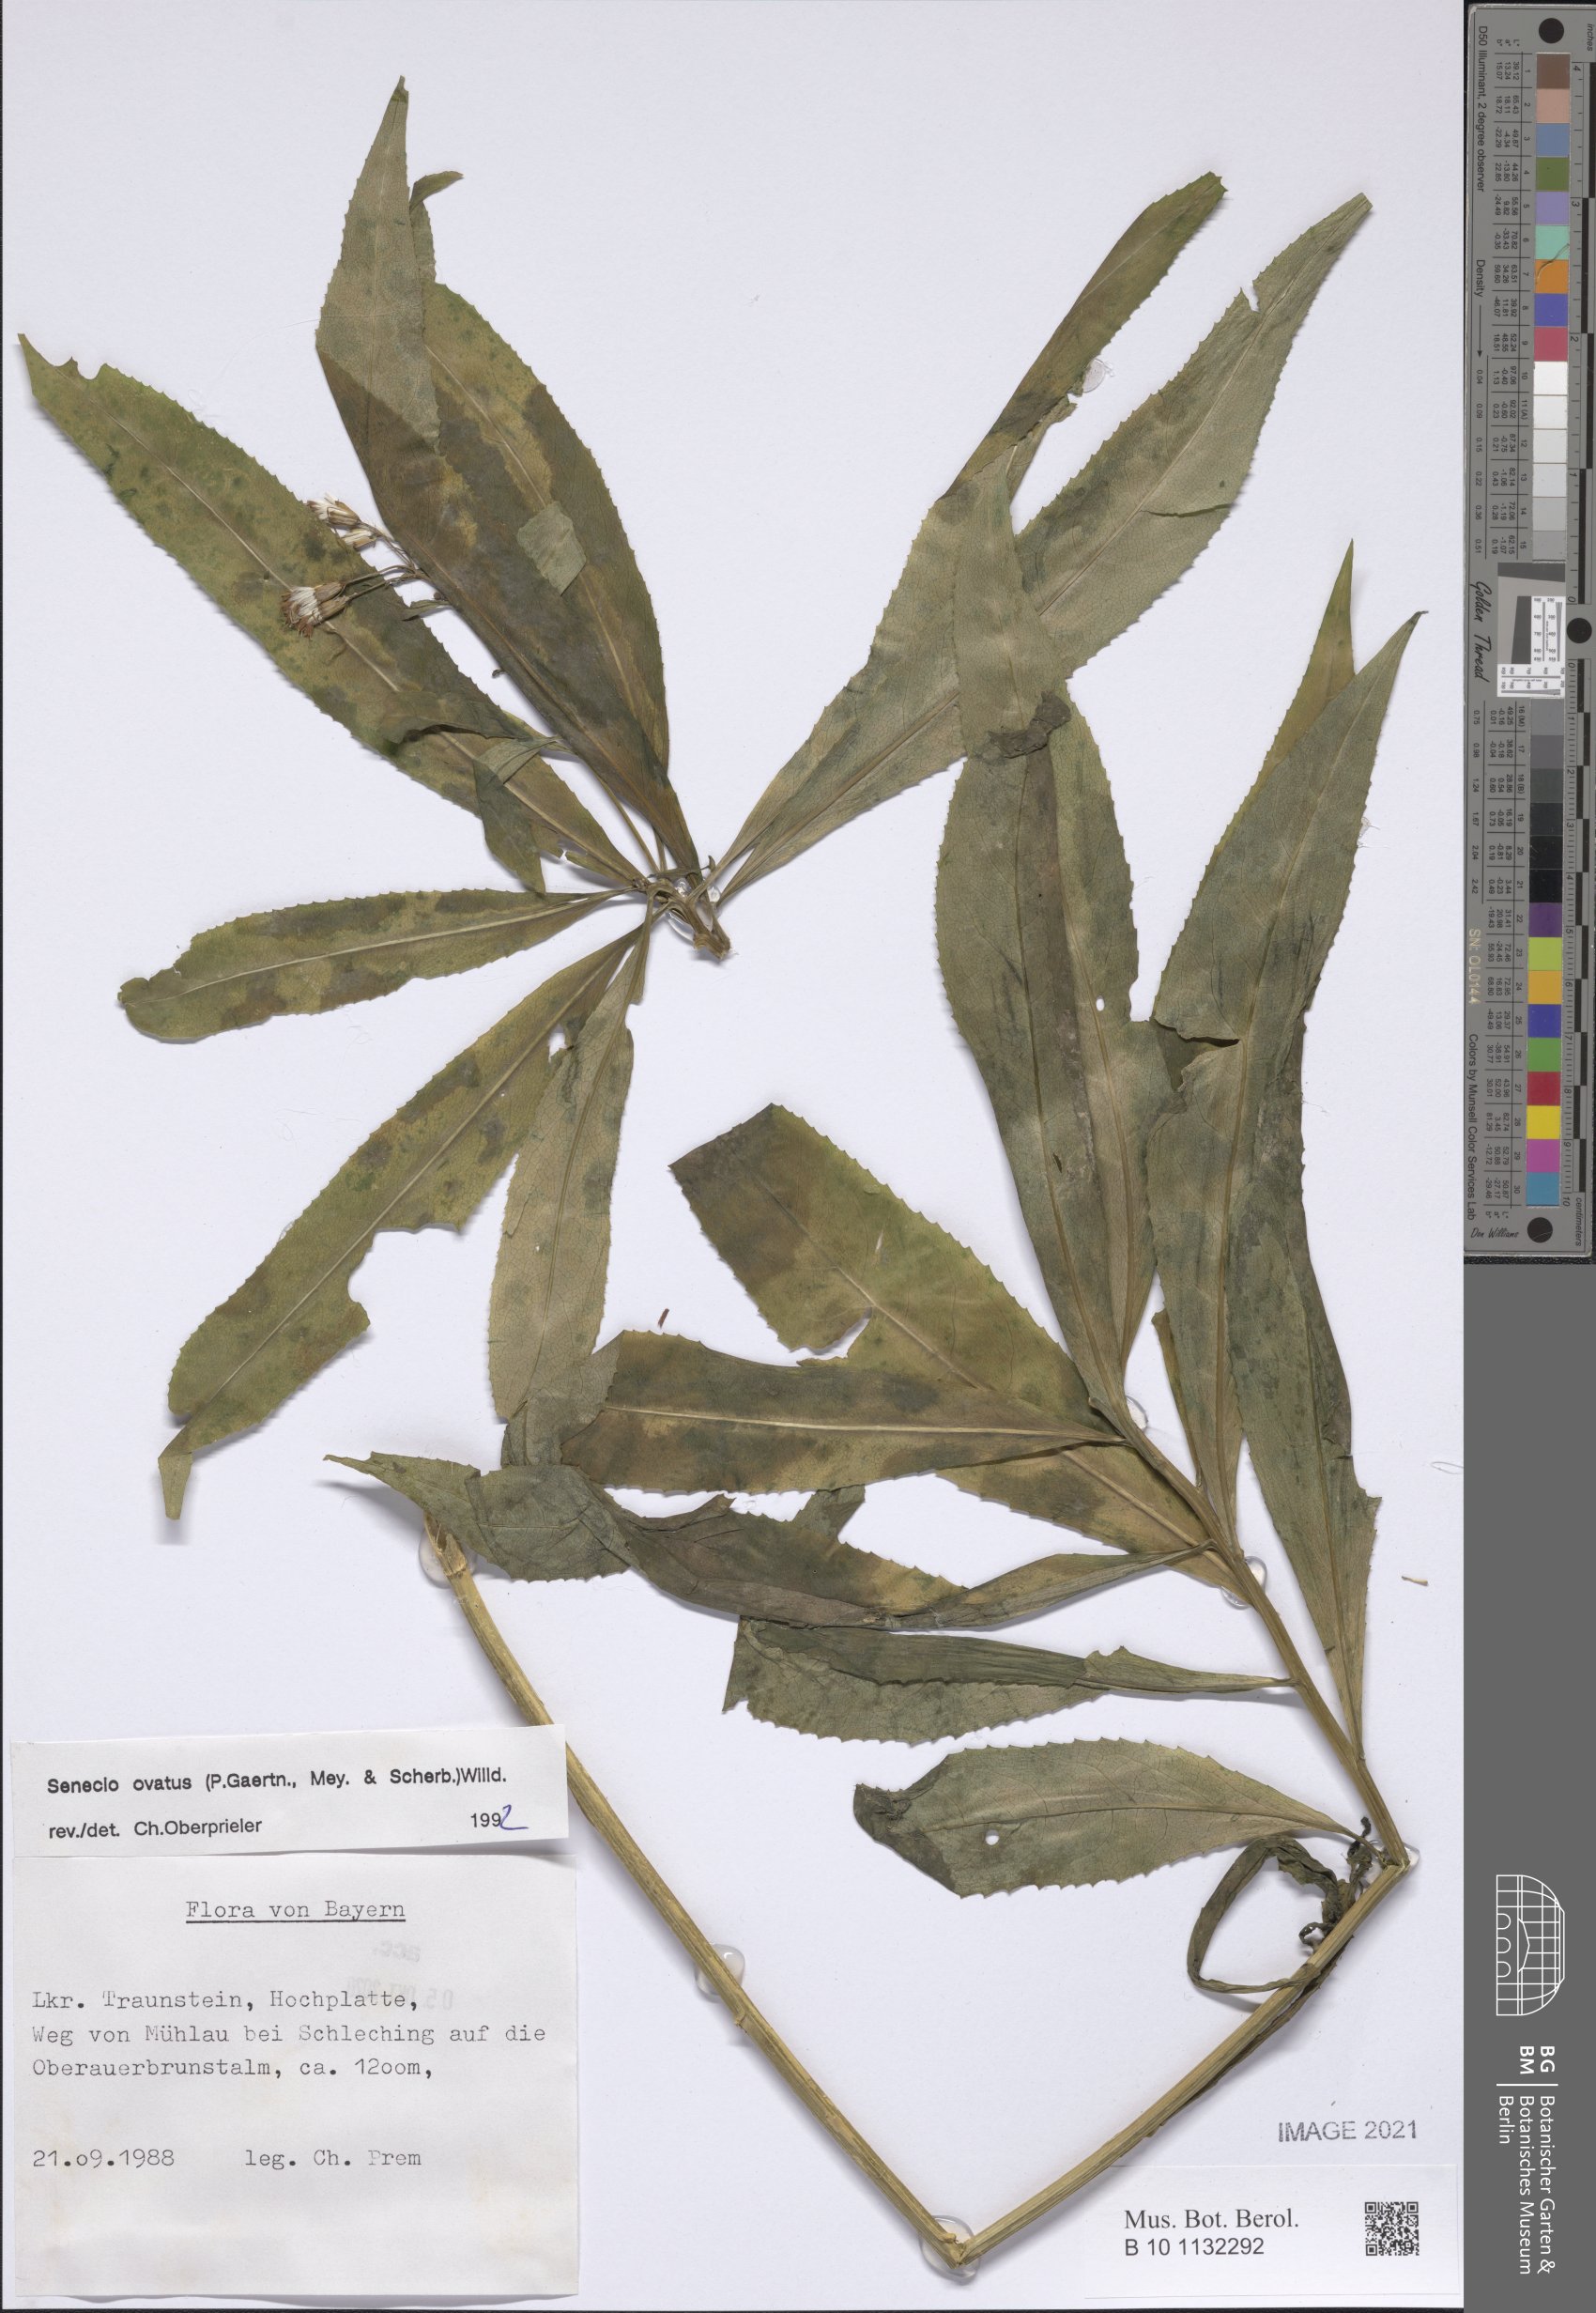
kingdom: Plantae
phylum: Tracheophyta
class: Magnoliopsida
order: Asterales
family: Asteraceae
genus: Senecio
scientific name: Senecio ovatus
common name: Wood ragwort
